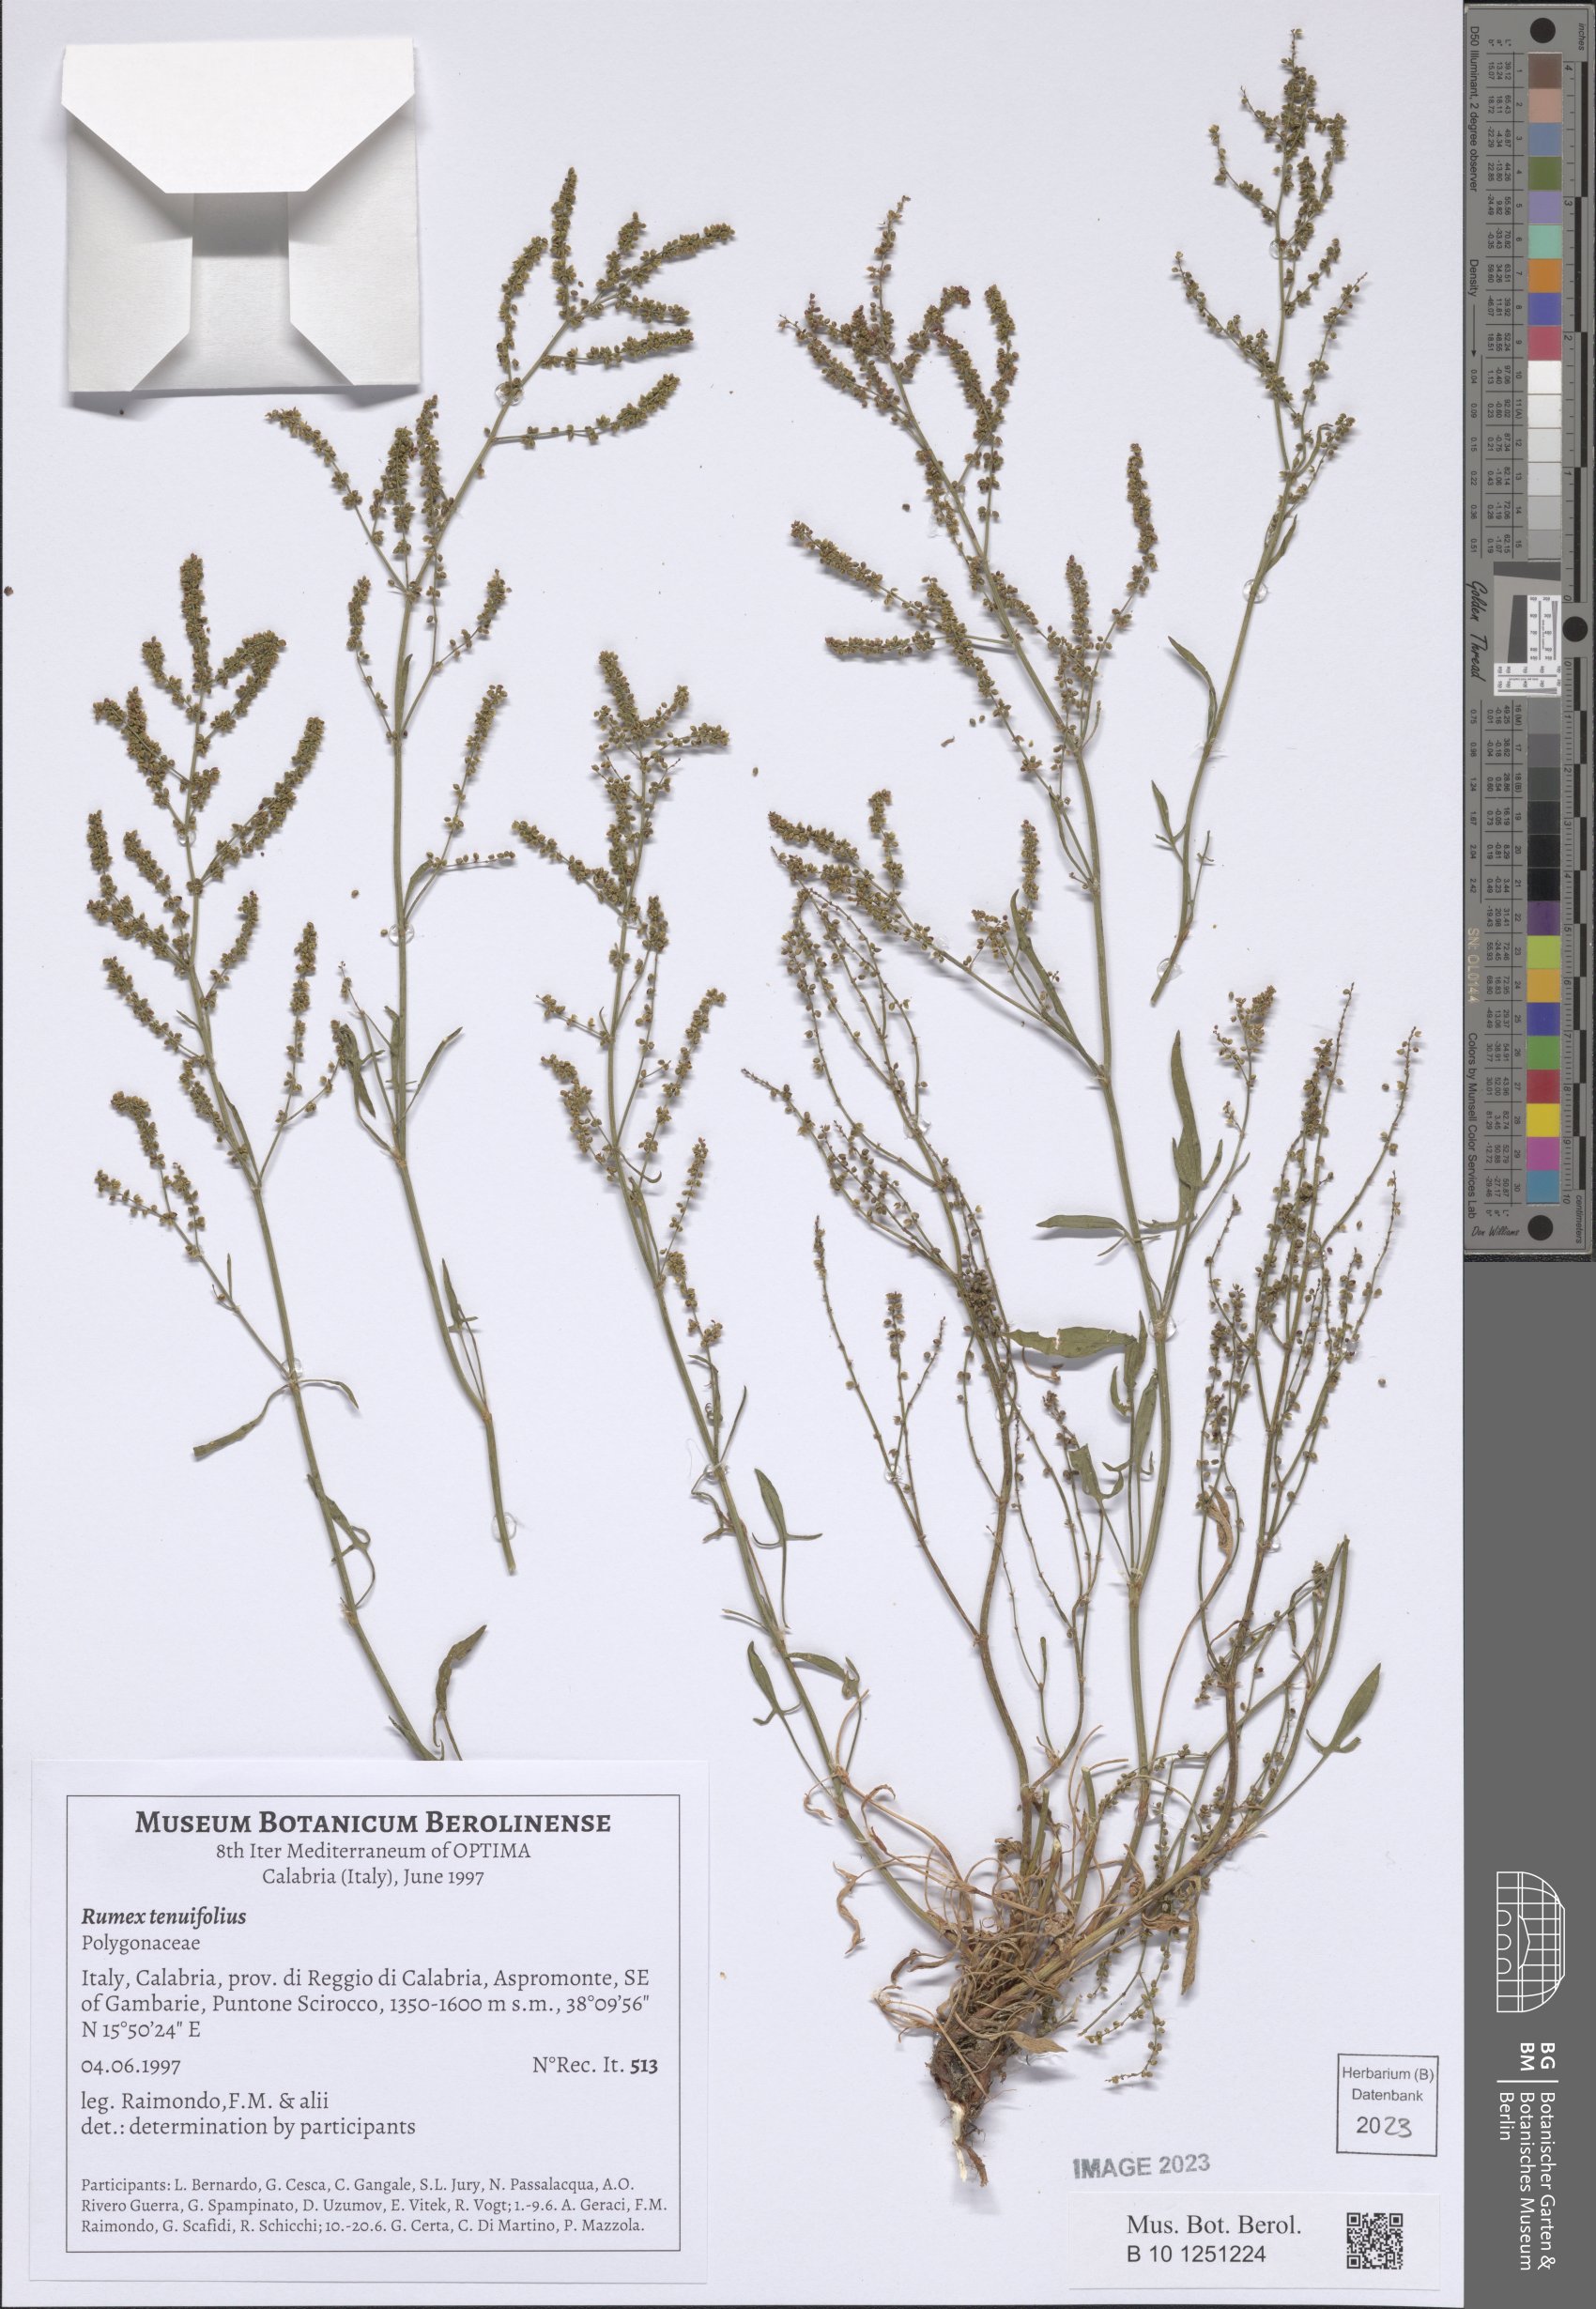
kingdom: Plantae
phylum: Tracheophyta
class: Magnoliopsida
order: Caryophyllales
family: Polygonaceae
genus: Rumex
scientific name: Rumex acetosella
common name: Common sheep sorrel
